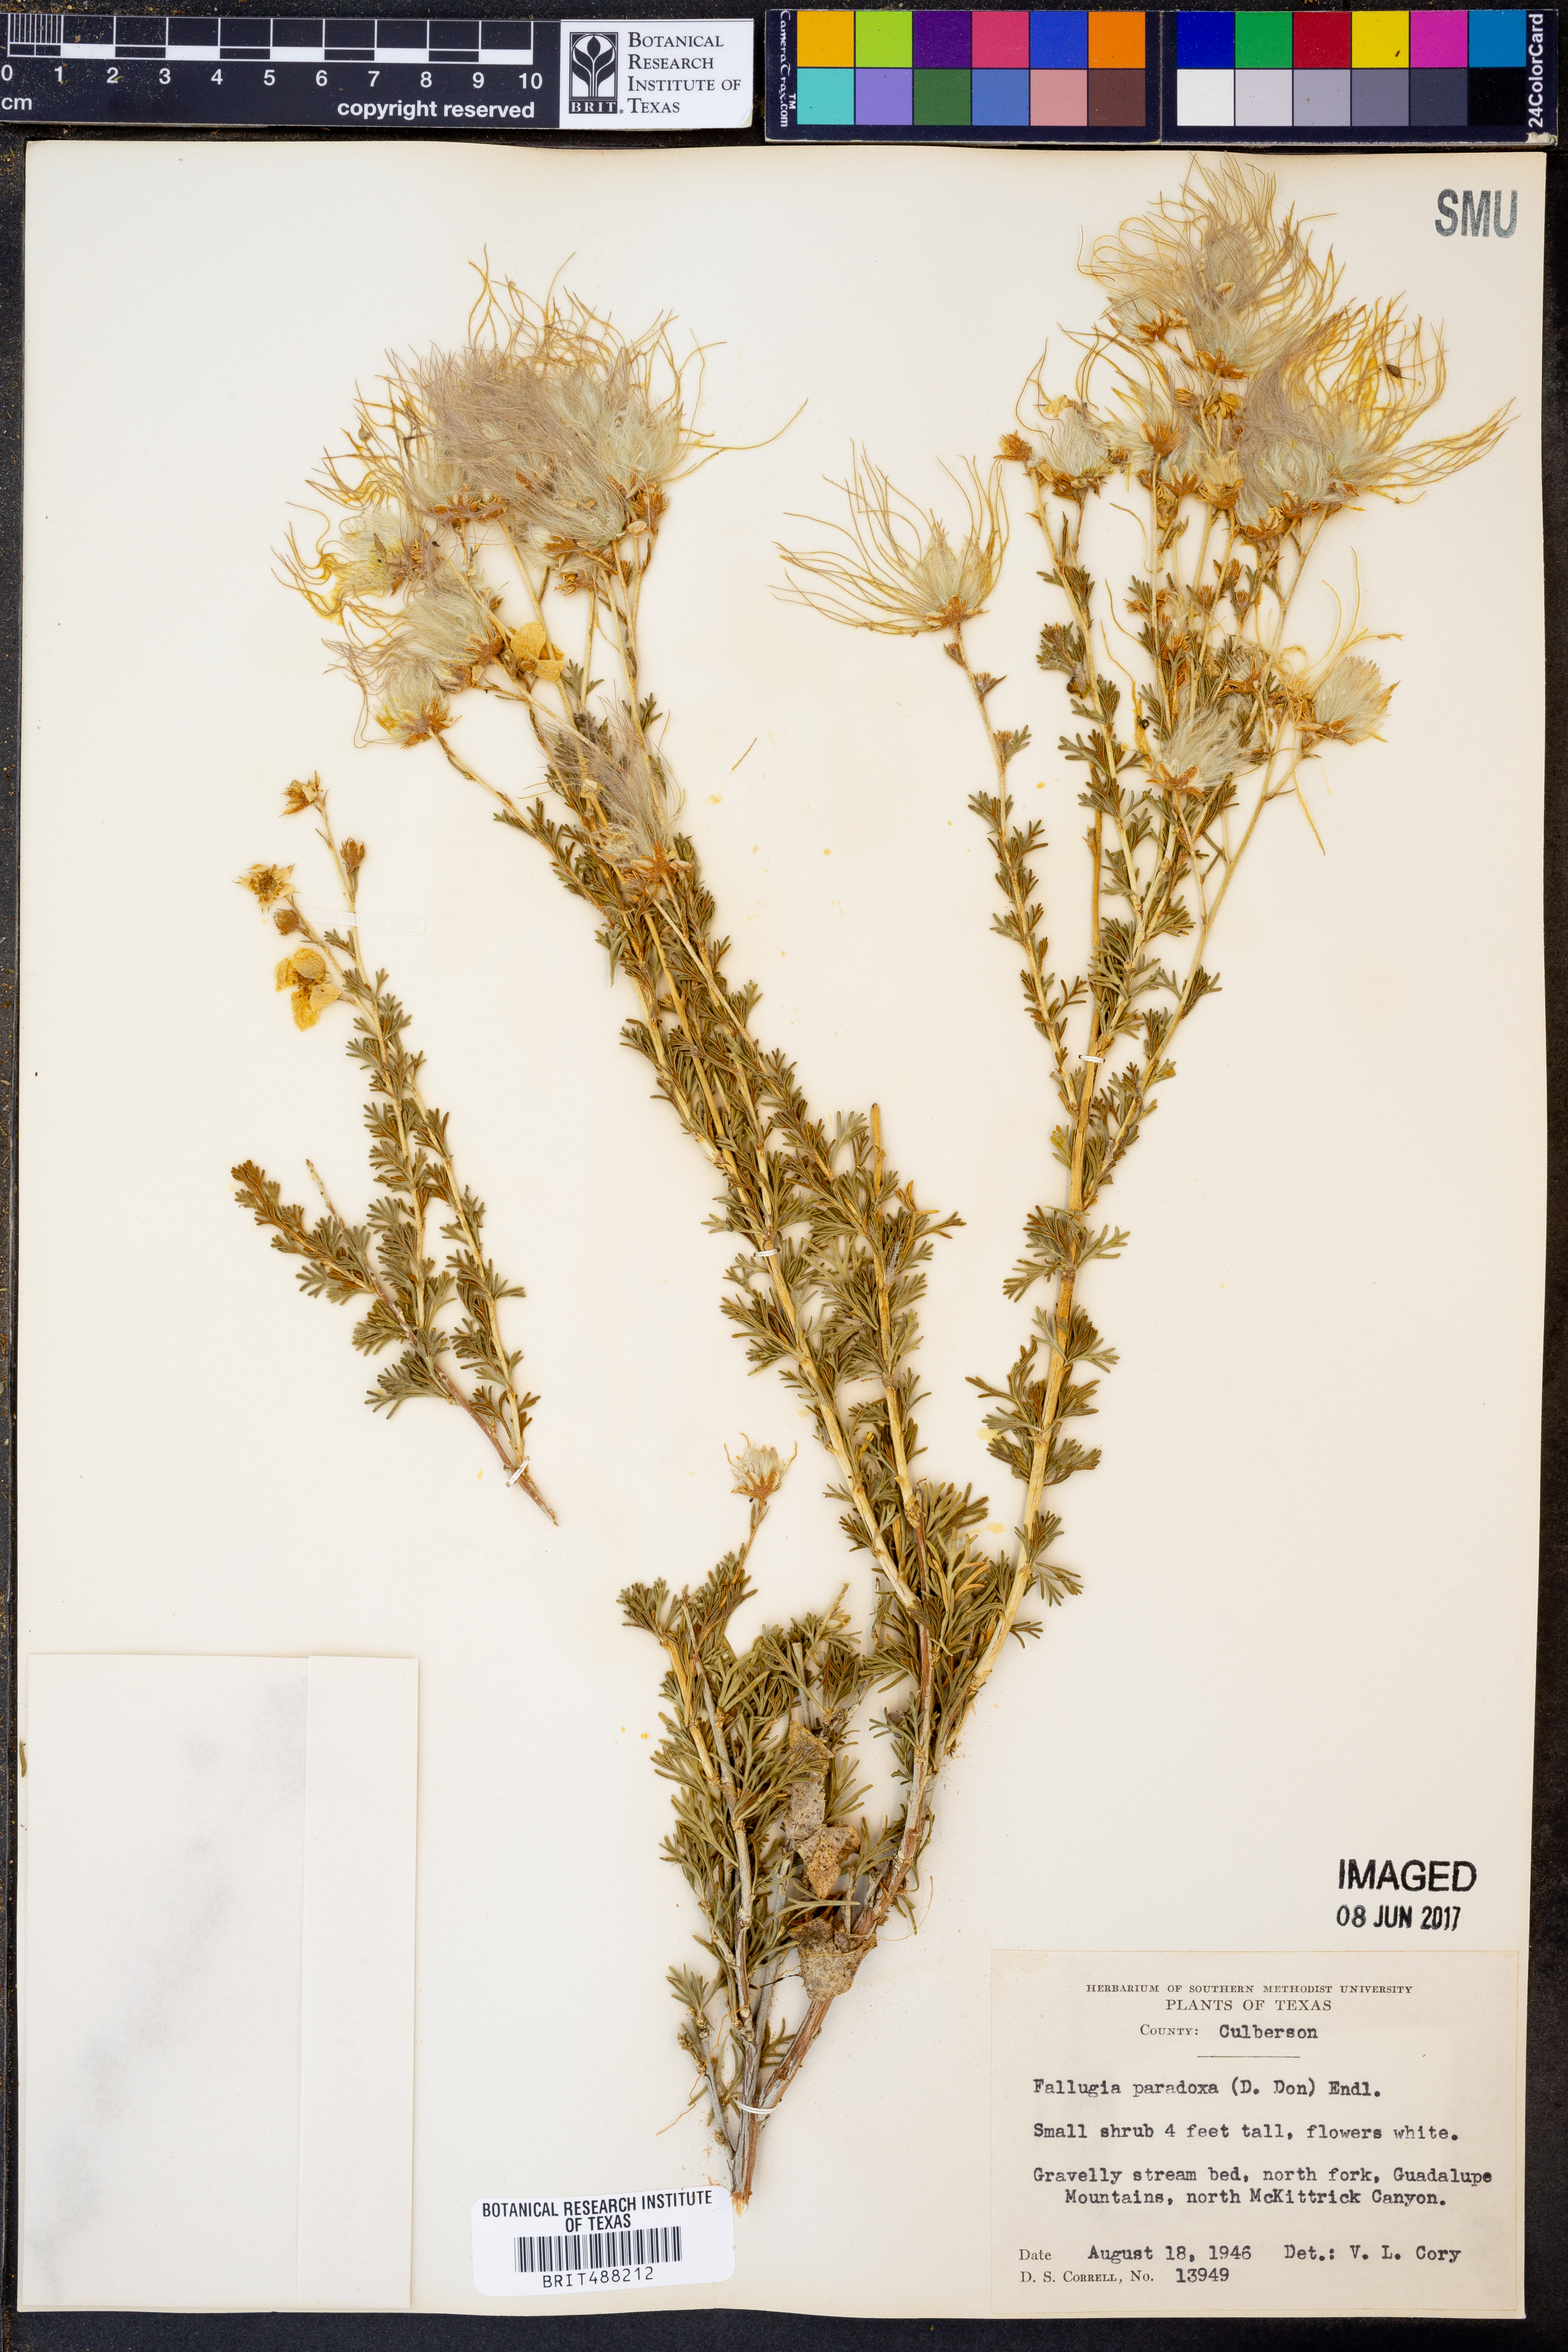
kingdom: Plantae
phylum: Tracheophyta
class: Magnoliopsida
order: Rosales
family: Rosaceae
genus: Fallugia
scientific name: Fallugia paradoxa
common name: Apache-plume
